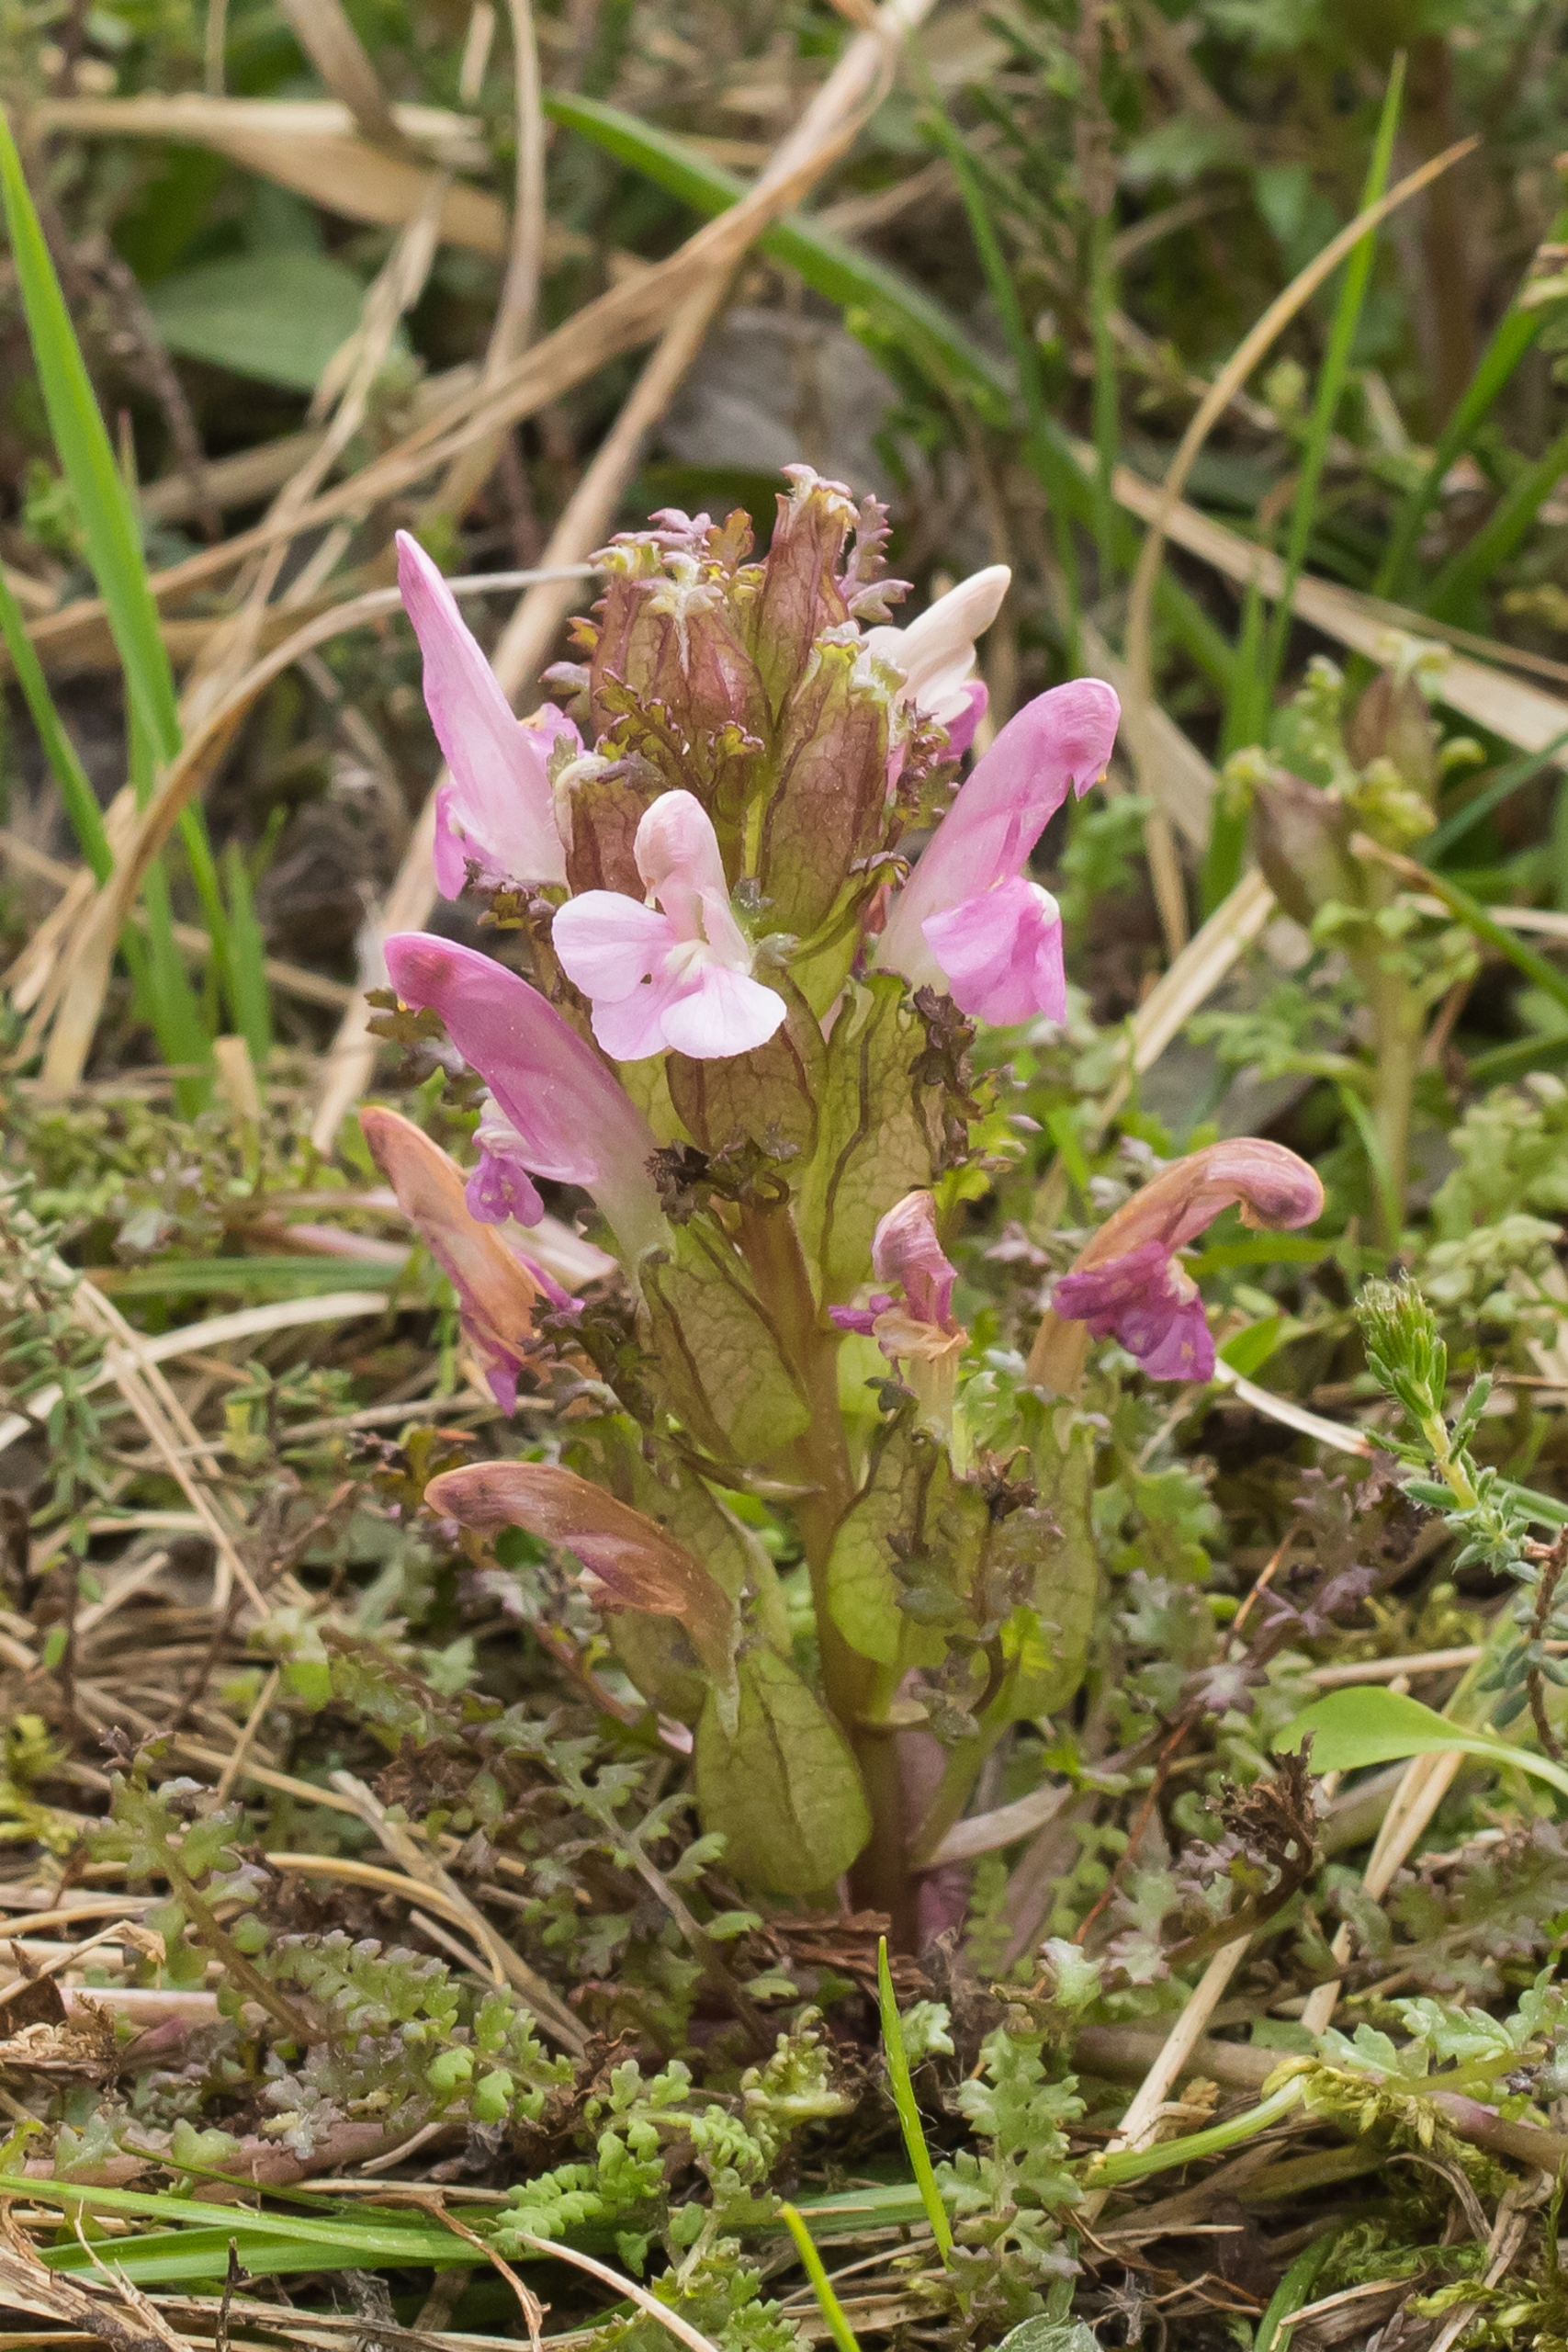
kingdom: Plantae
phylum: Tracheophyta
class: Magnoliopsida
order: Lamiales
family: Orobanchaceae
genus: Pedicularis
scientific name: Pedicularis sylvatica
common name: Mose-troldurt
